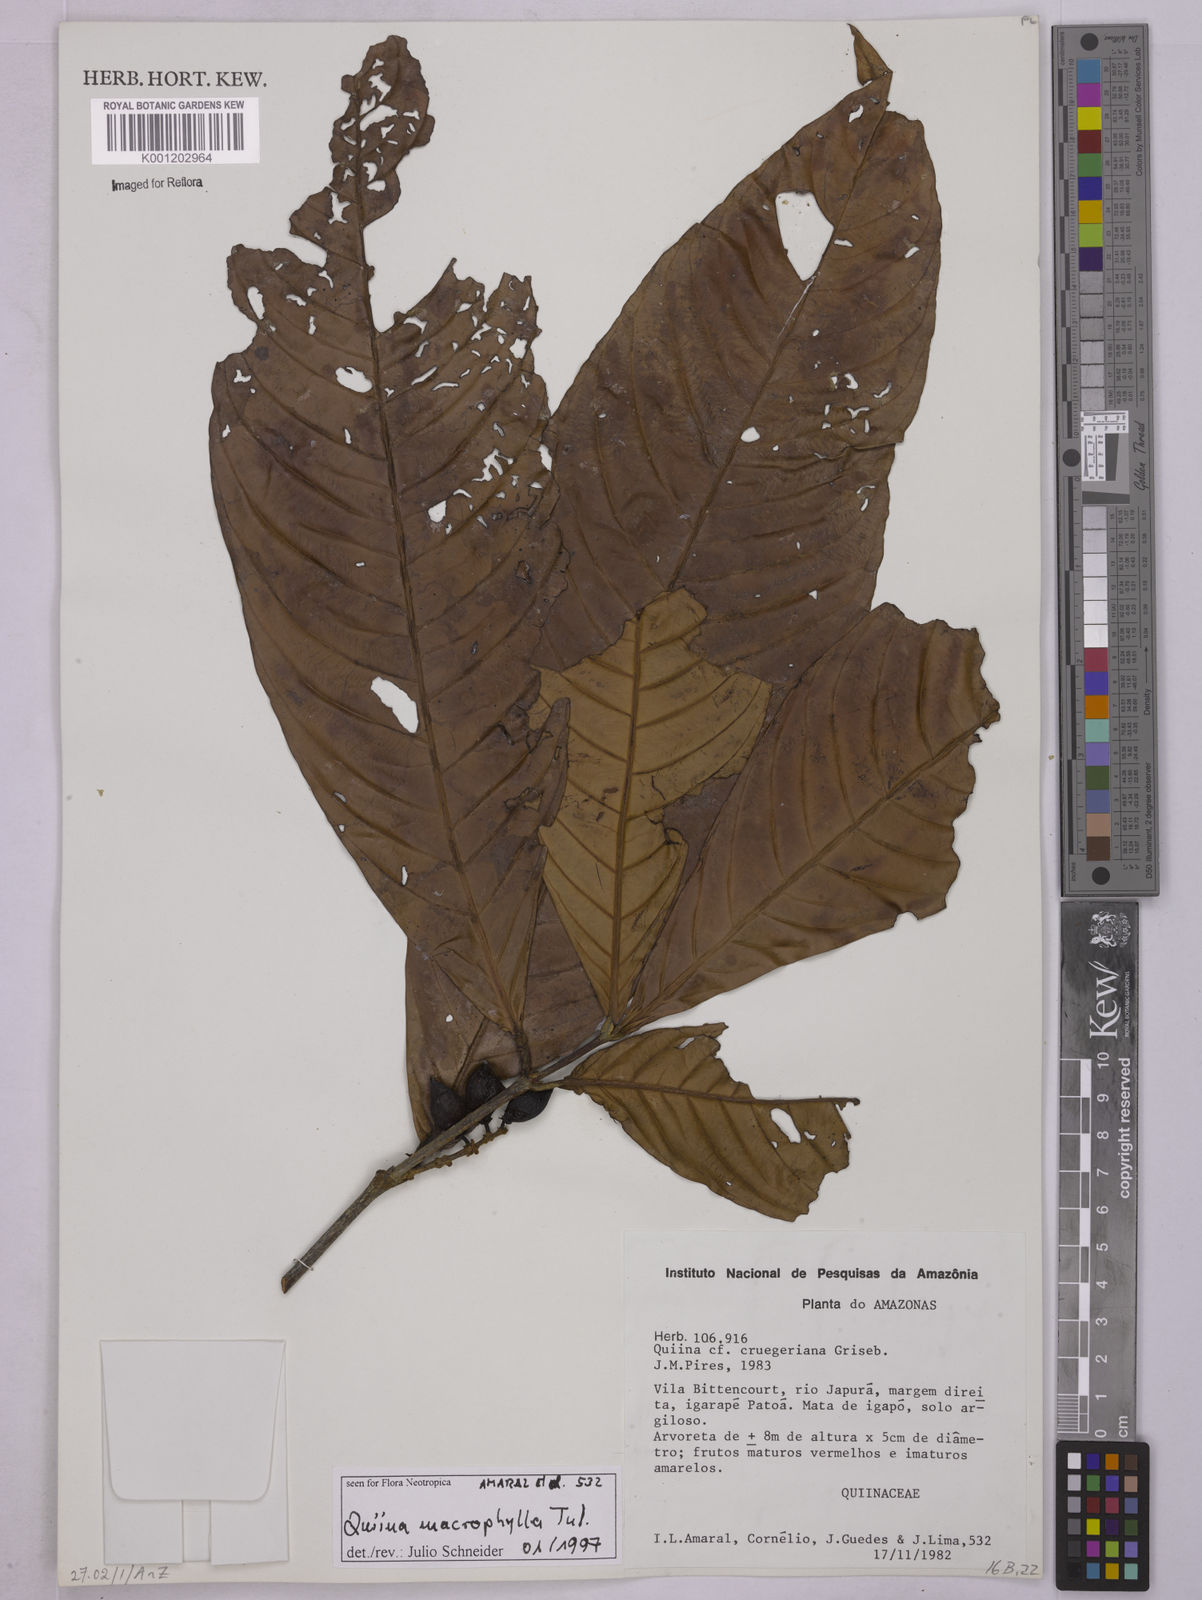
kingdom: Plantae
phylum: Tracheophyta
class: Magnoliopsida
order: Malpighiales
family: Quiinaceae
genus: Quiina
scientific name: Quiina macrophylla
